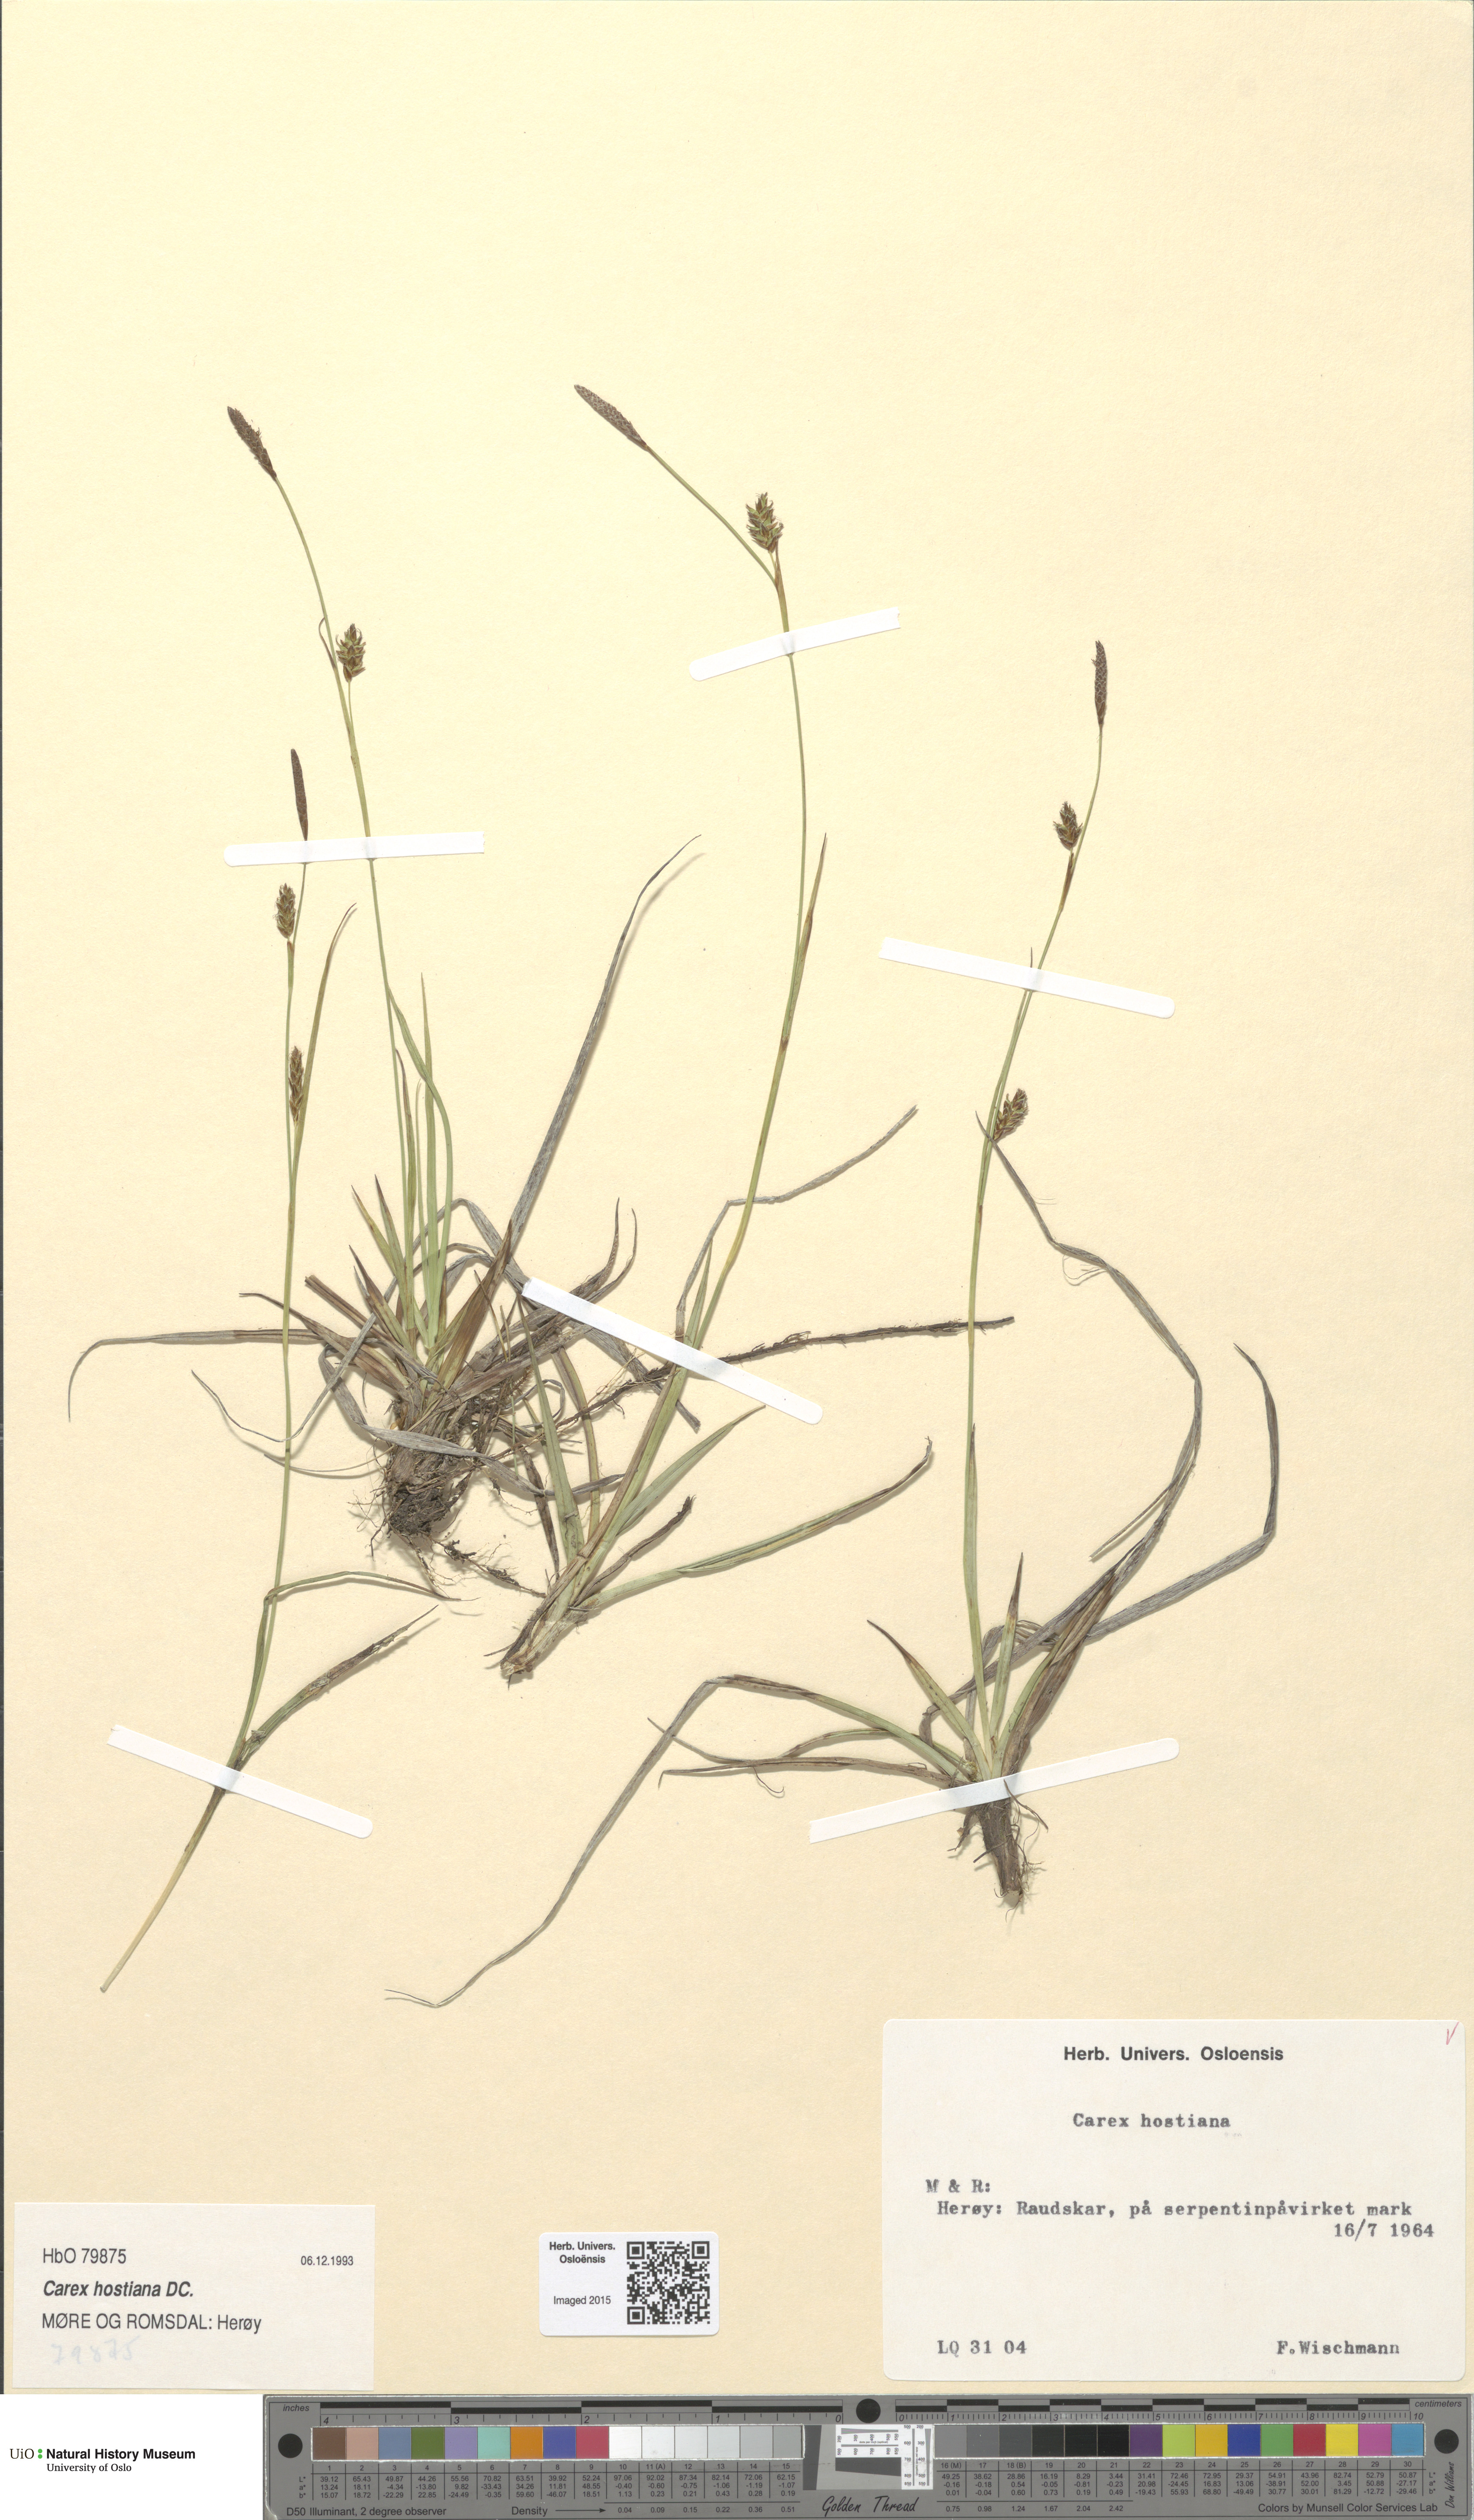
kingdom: Plantae
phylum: Tracheophyta
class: Liliopsida
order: Poales
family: Cyperaceae
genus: Carex
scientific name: Carex hostiana
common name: Tawny sedge
